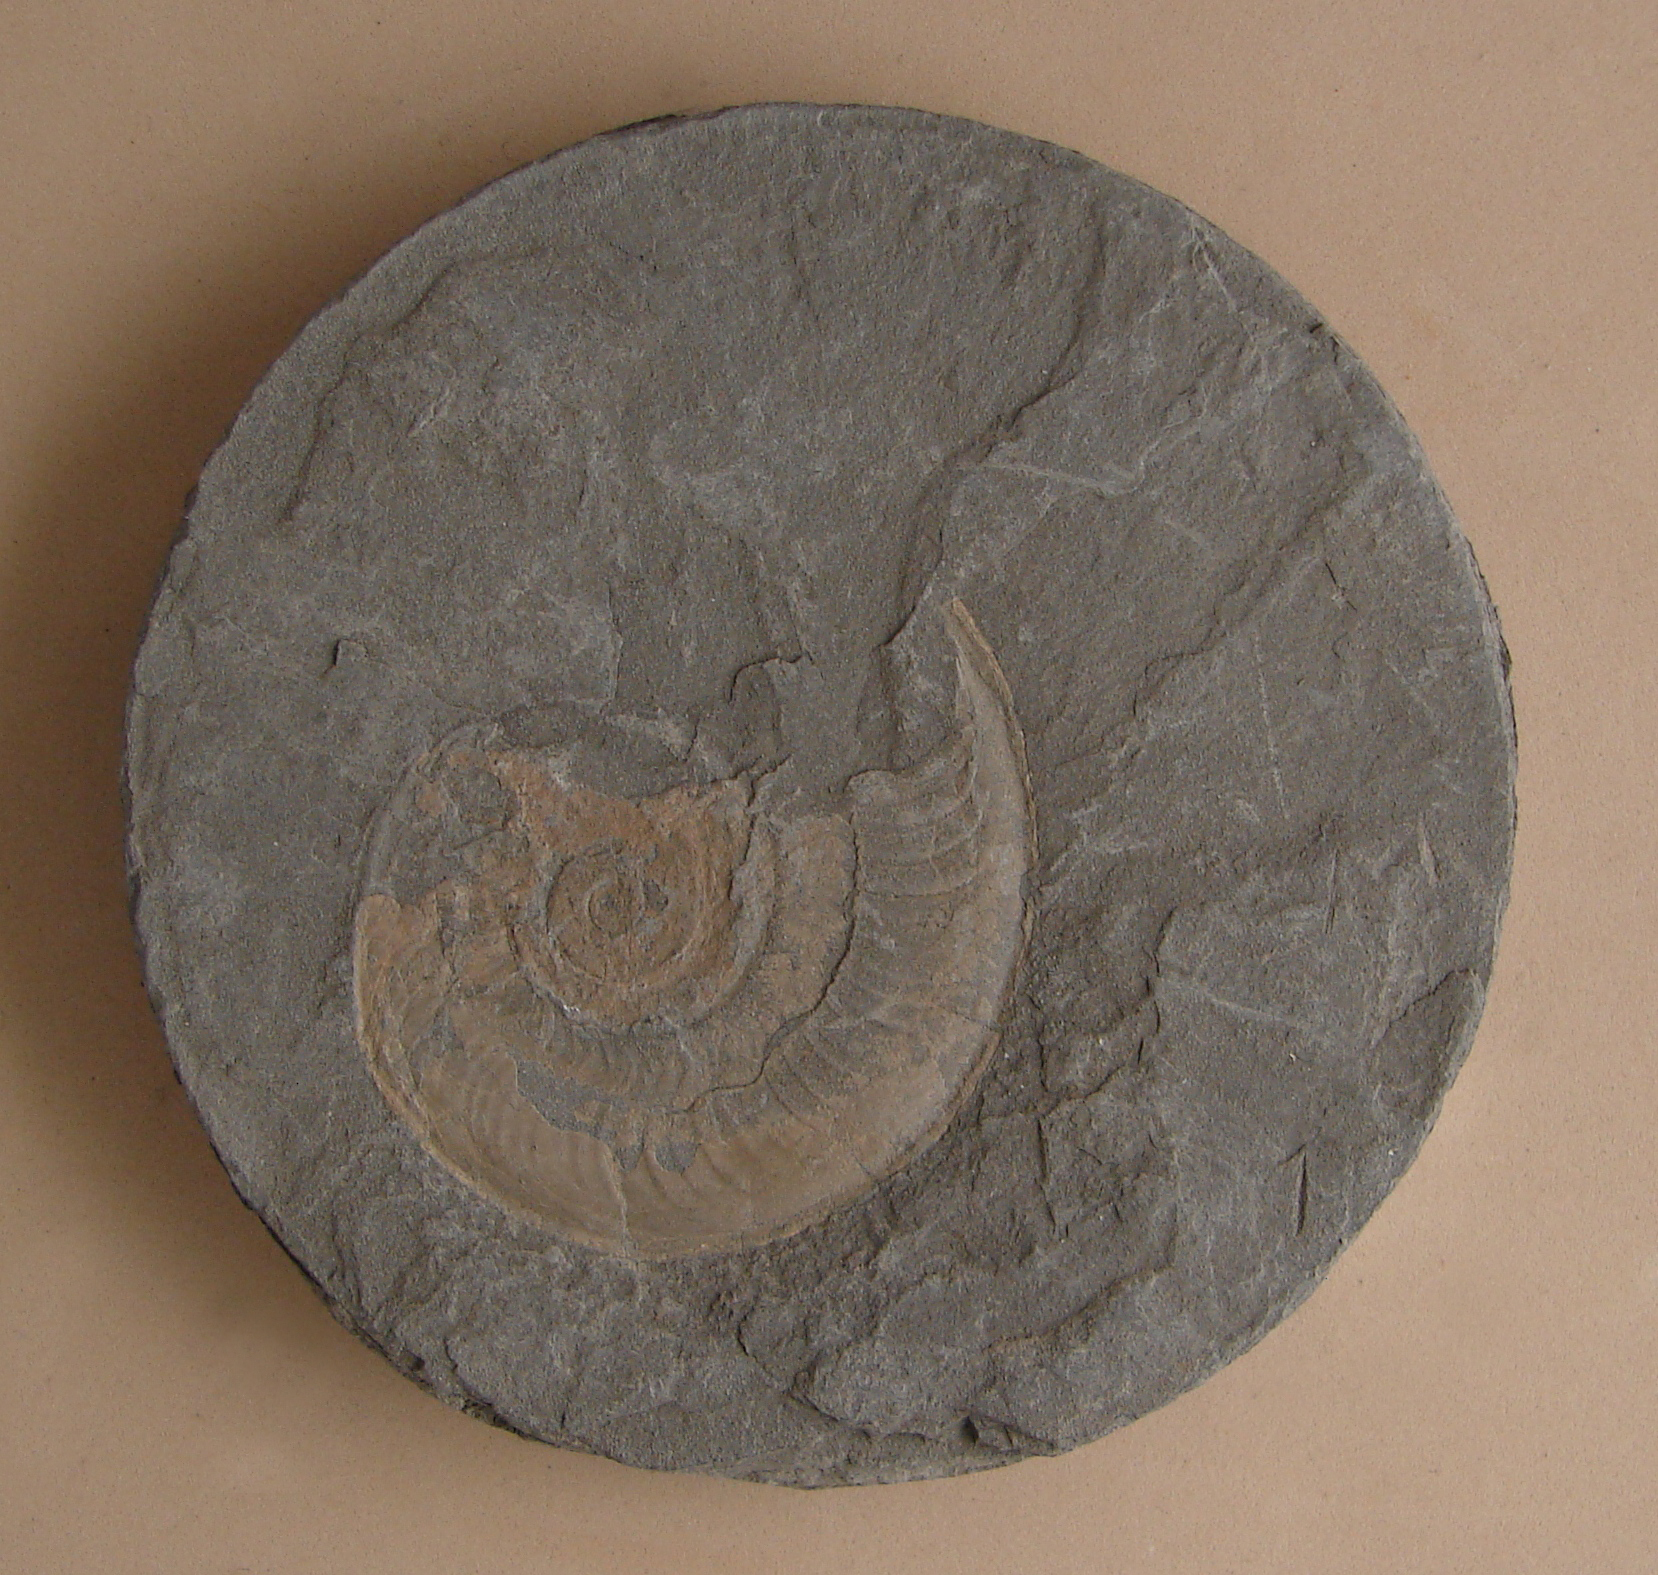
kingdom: Animalia
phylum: Mollusca
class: Cephalopoda
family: Hildoceratidae
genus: Harpoceras
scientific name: Harpoceras pseudoserpentinum
